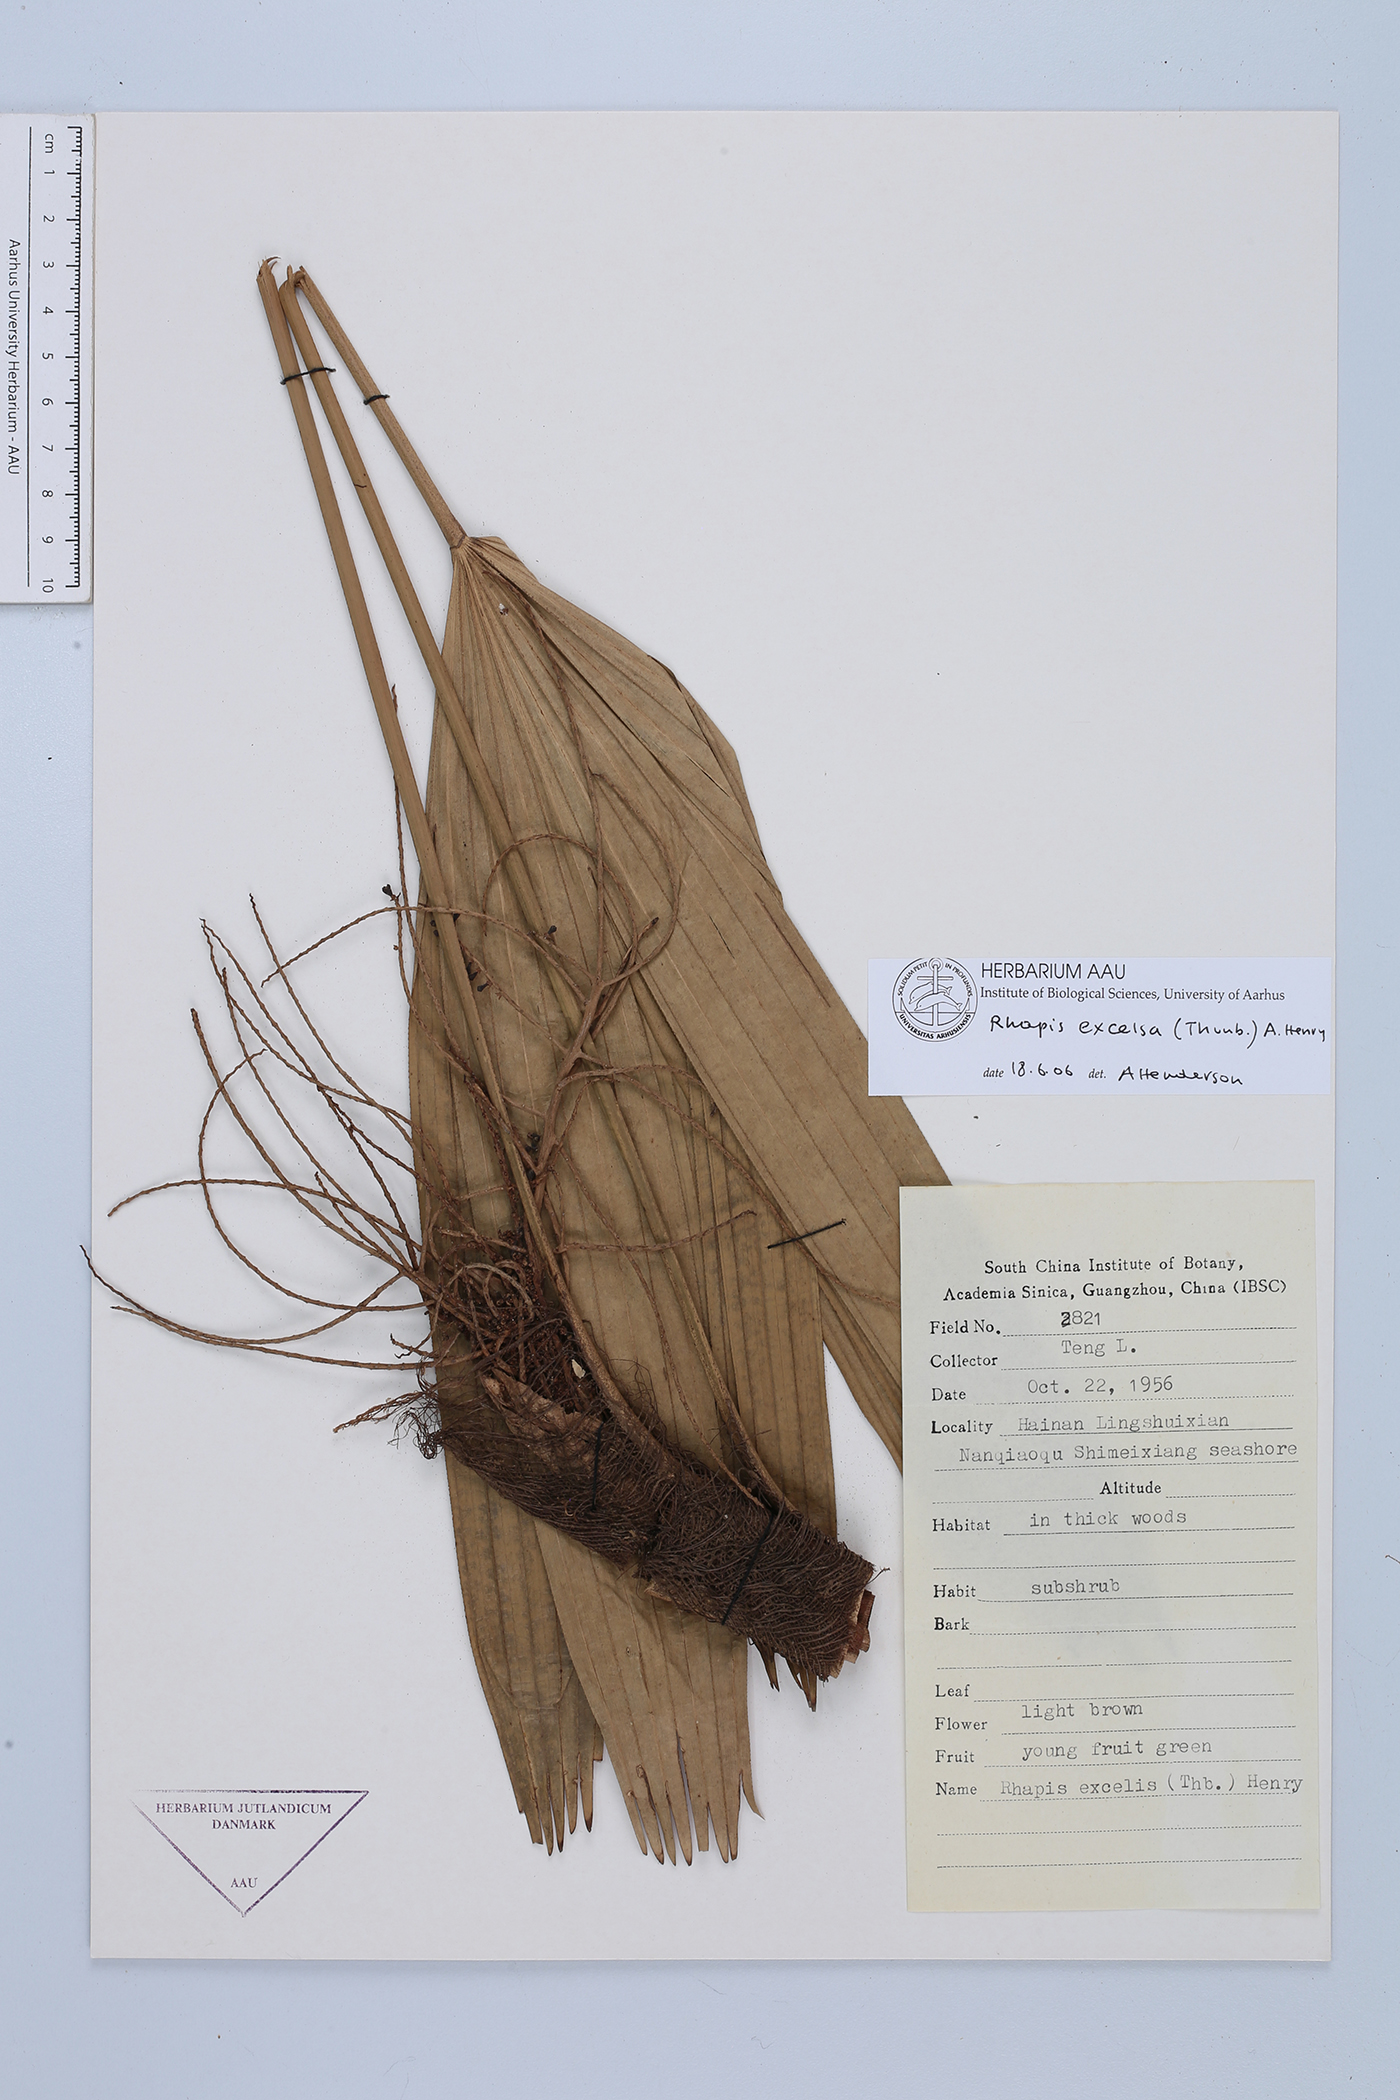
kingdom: Plantae
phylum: Tracheophyta
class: Liliopsida
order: Arecales
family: Arecaceae
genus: Rhapis
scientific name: Rhapis excelsa
